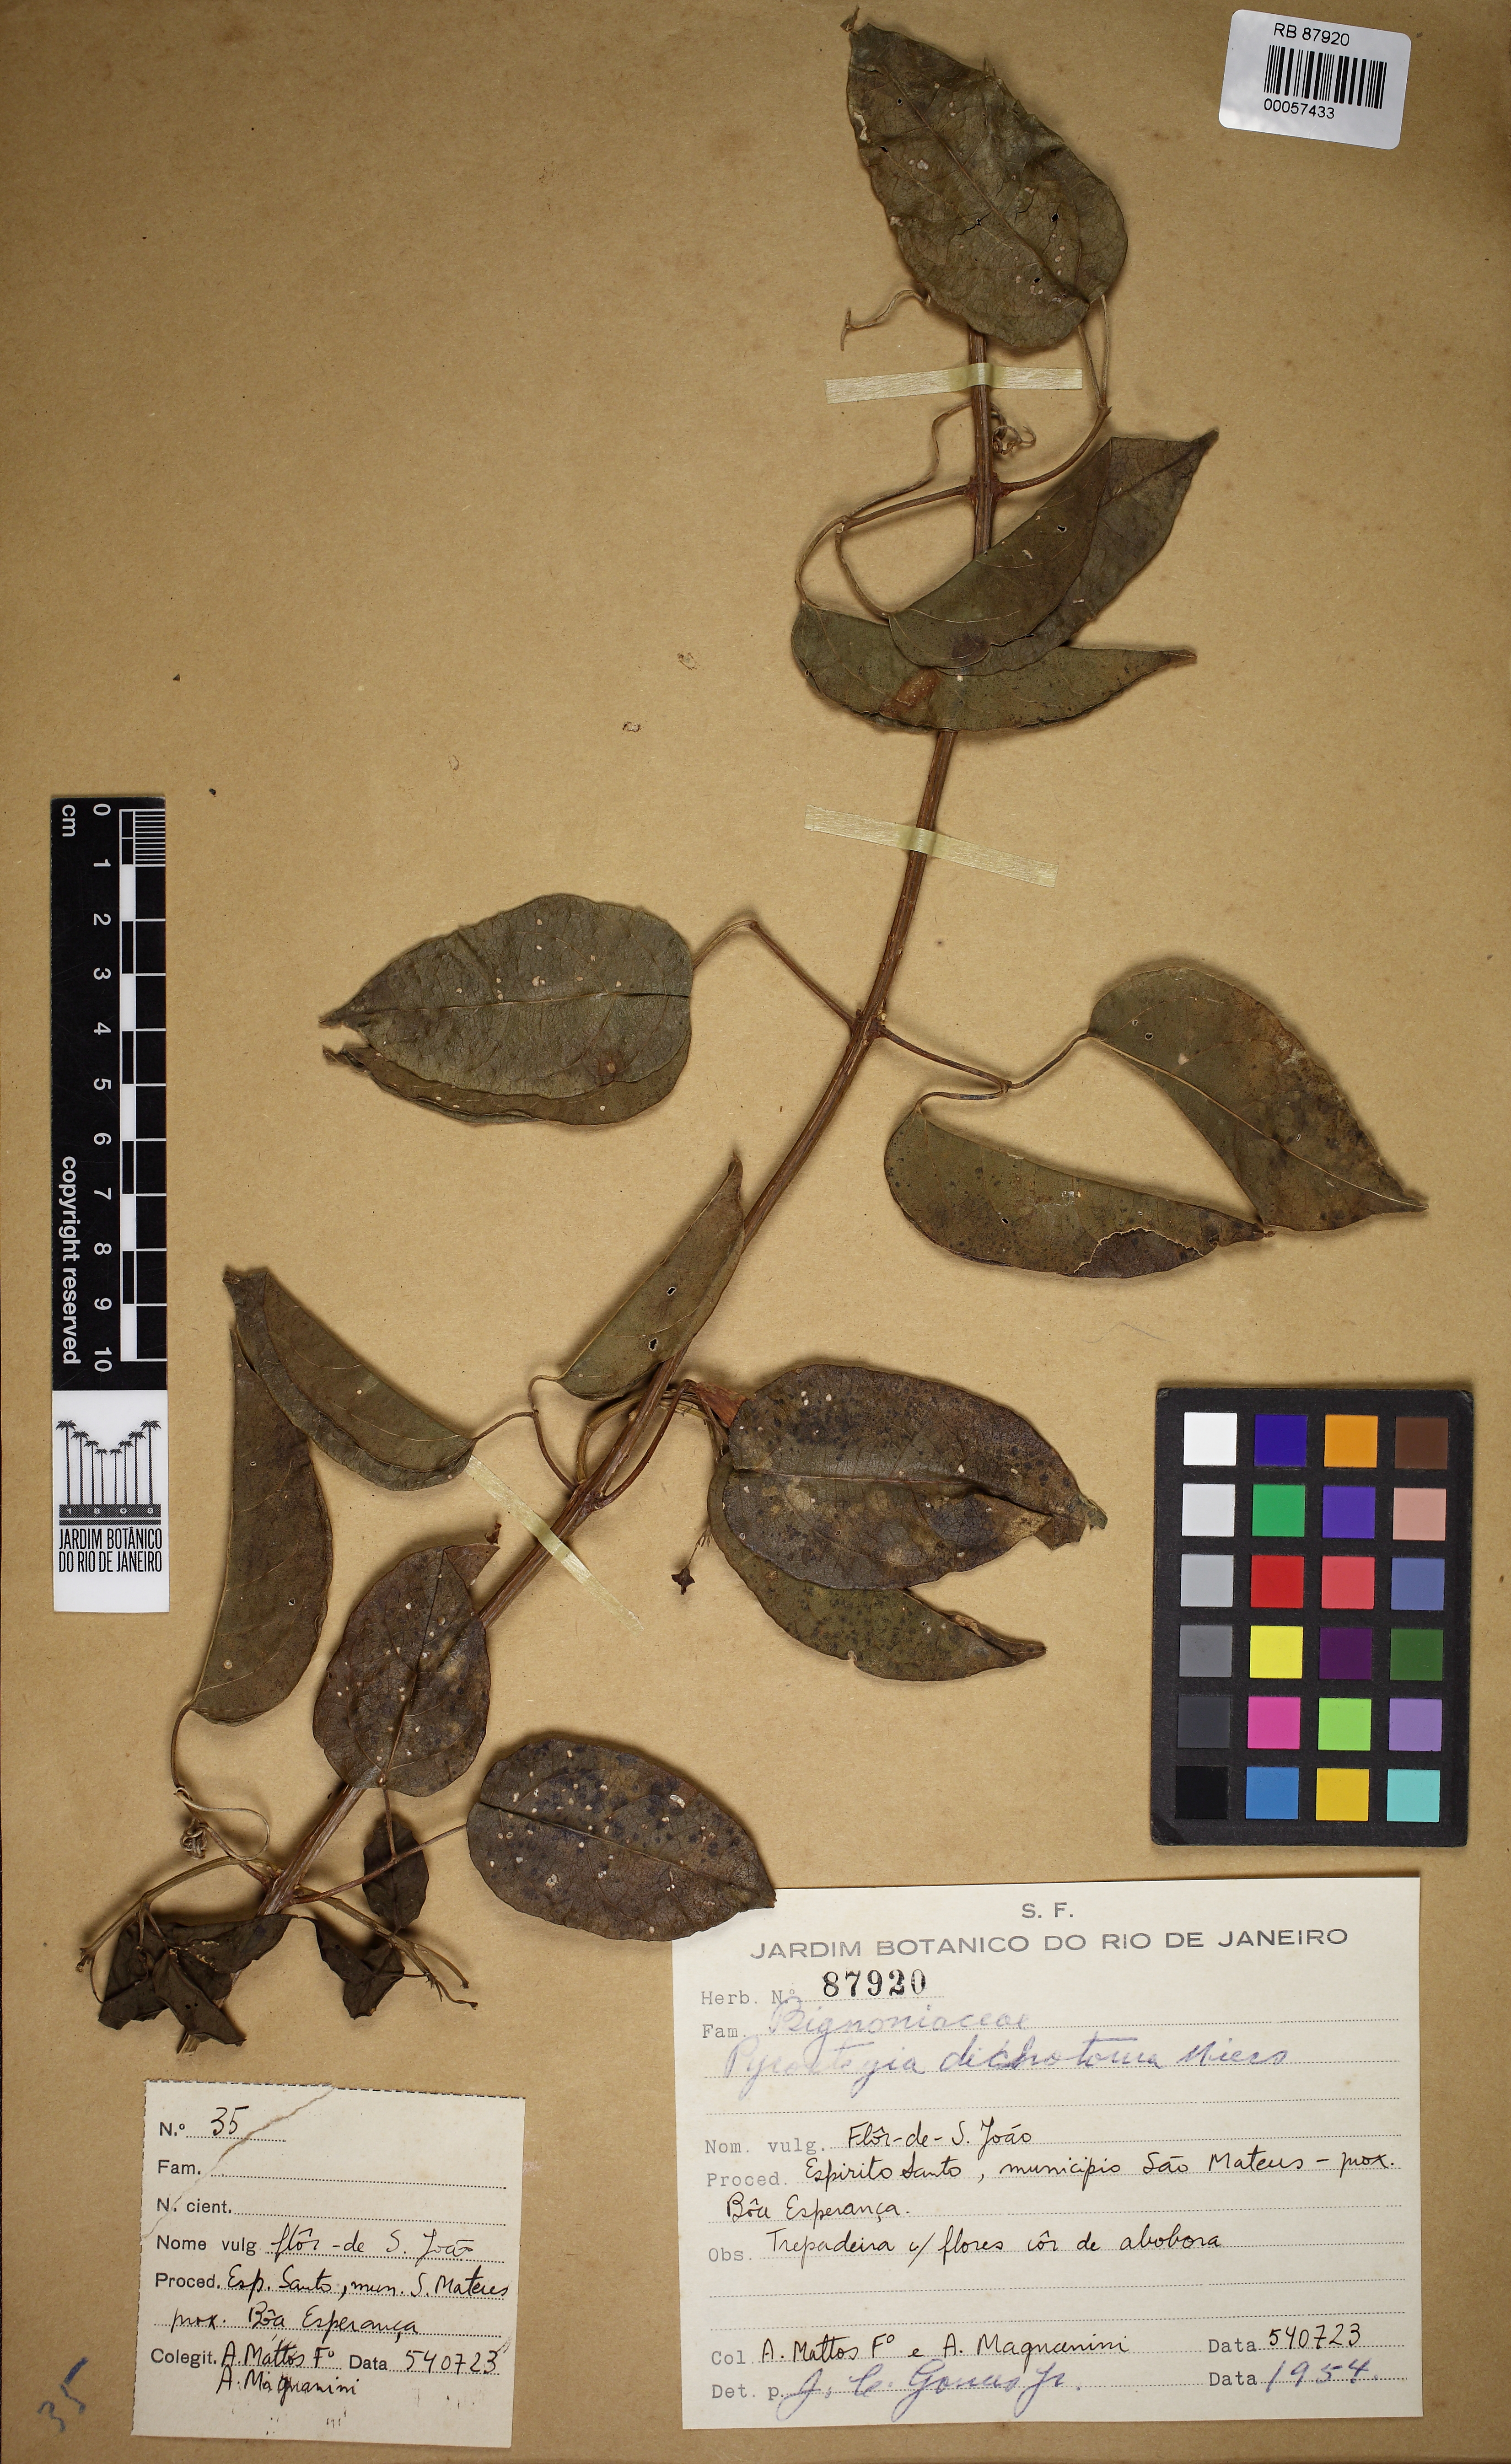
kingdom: Plantae
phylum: Tracheophyta
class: Magnoliopsida
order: Lamiales
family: Bignoniaceae
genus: Pyrostegia
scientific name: Pyrostegia venusta
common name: Flamevine
